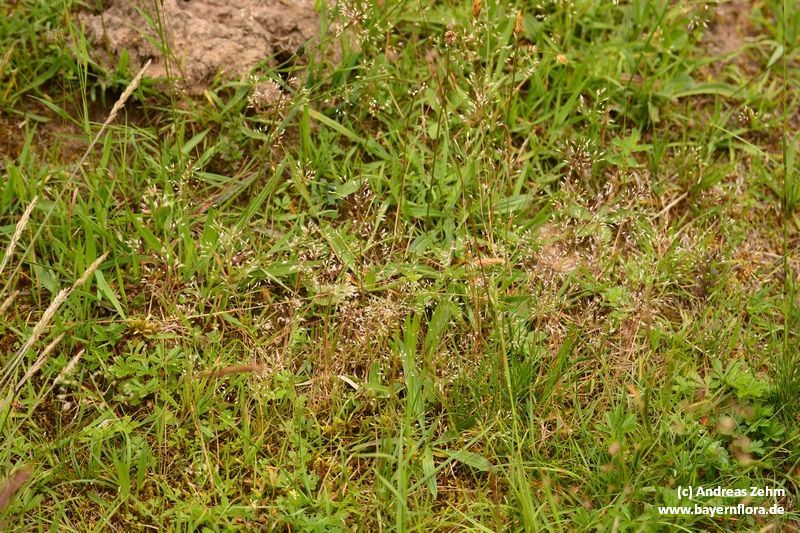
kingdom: Plantae
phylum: Tracheophyta
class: Liliopsida
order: Poales
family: Poaceae
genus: Aira
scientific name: Aira caryophyllea
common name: Silver hairgrass
